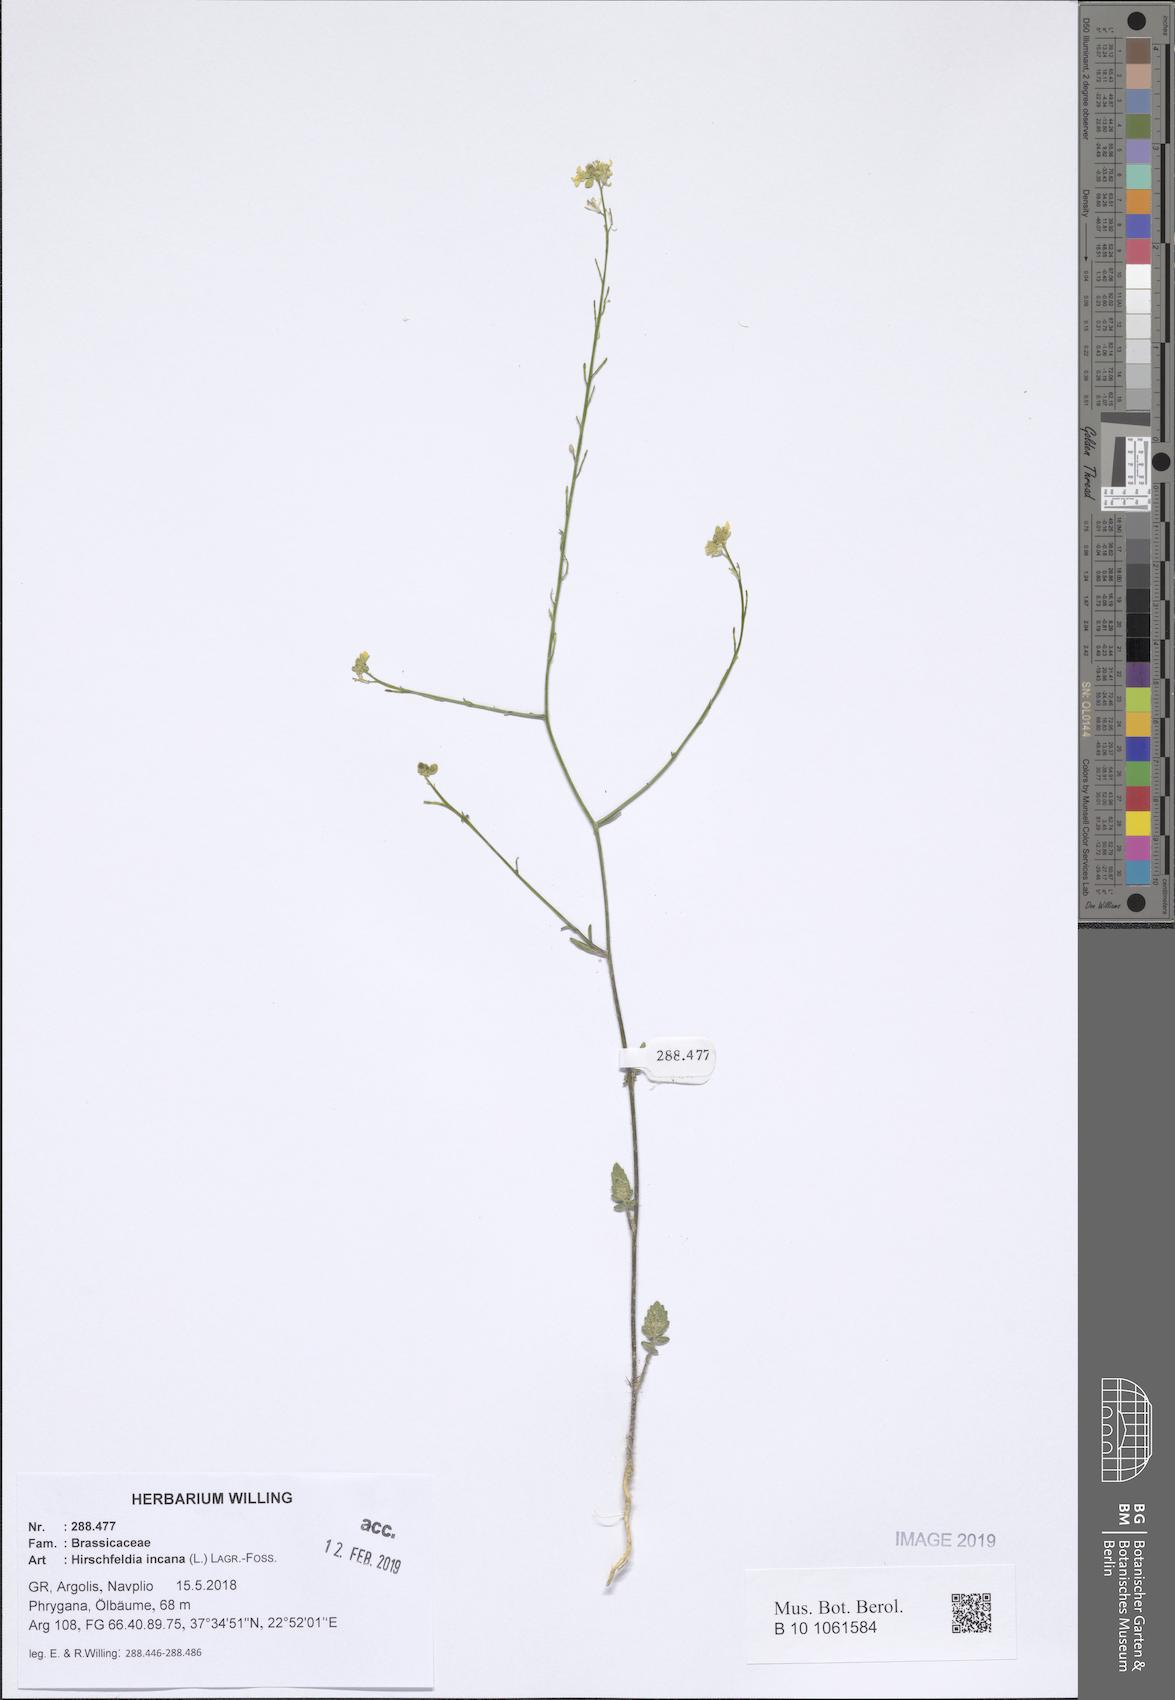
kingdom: Plantae
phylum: Tracheophyta
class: Magnoliopsida
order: Brassicales
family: Brassicaceae
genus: Hirschfeldia
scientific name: Hirschfeldia incana
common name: Hoary mustard
